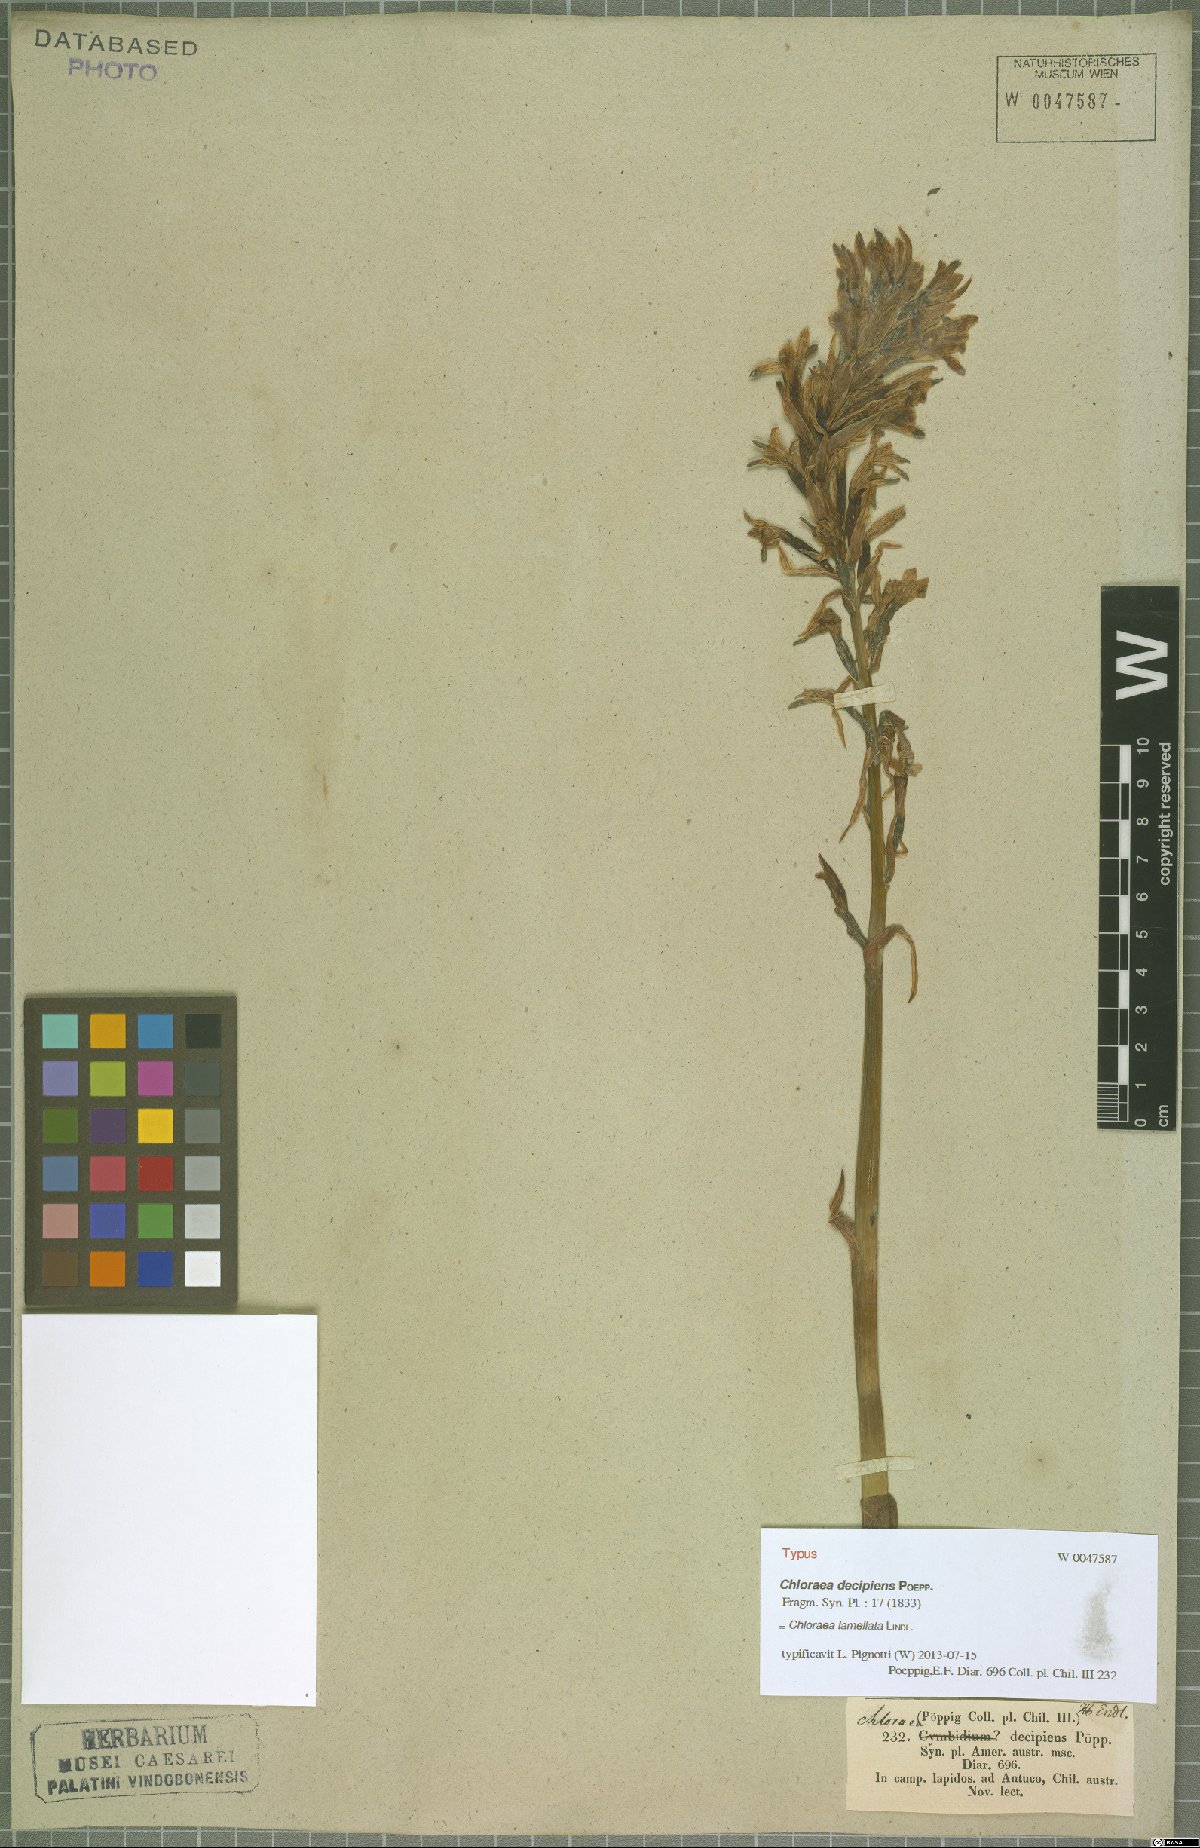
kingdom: Plantae
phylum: Tracheophyta
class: Liliopsida
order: Asparagales
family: Orchidaceae
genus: Chloraea
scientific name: Chloraea lamellata
